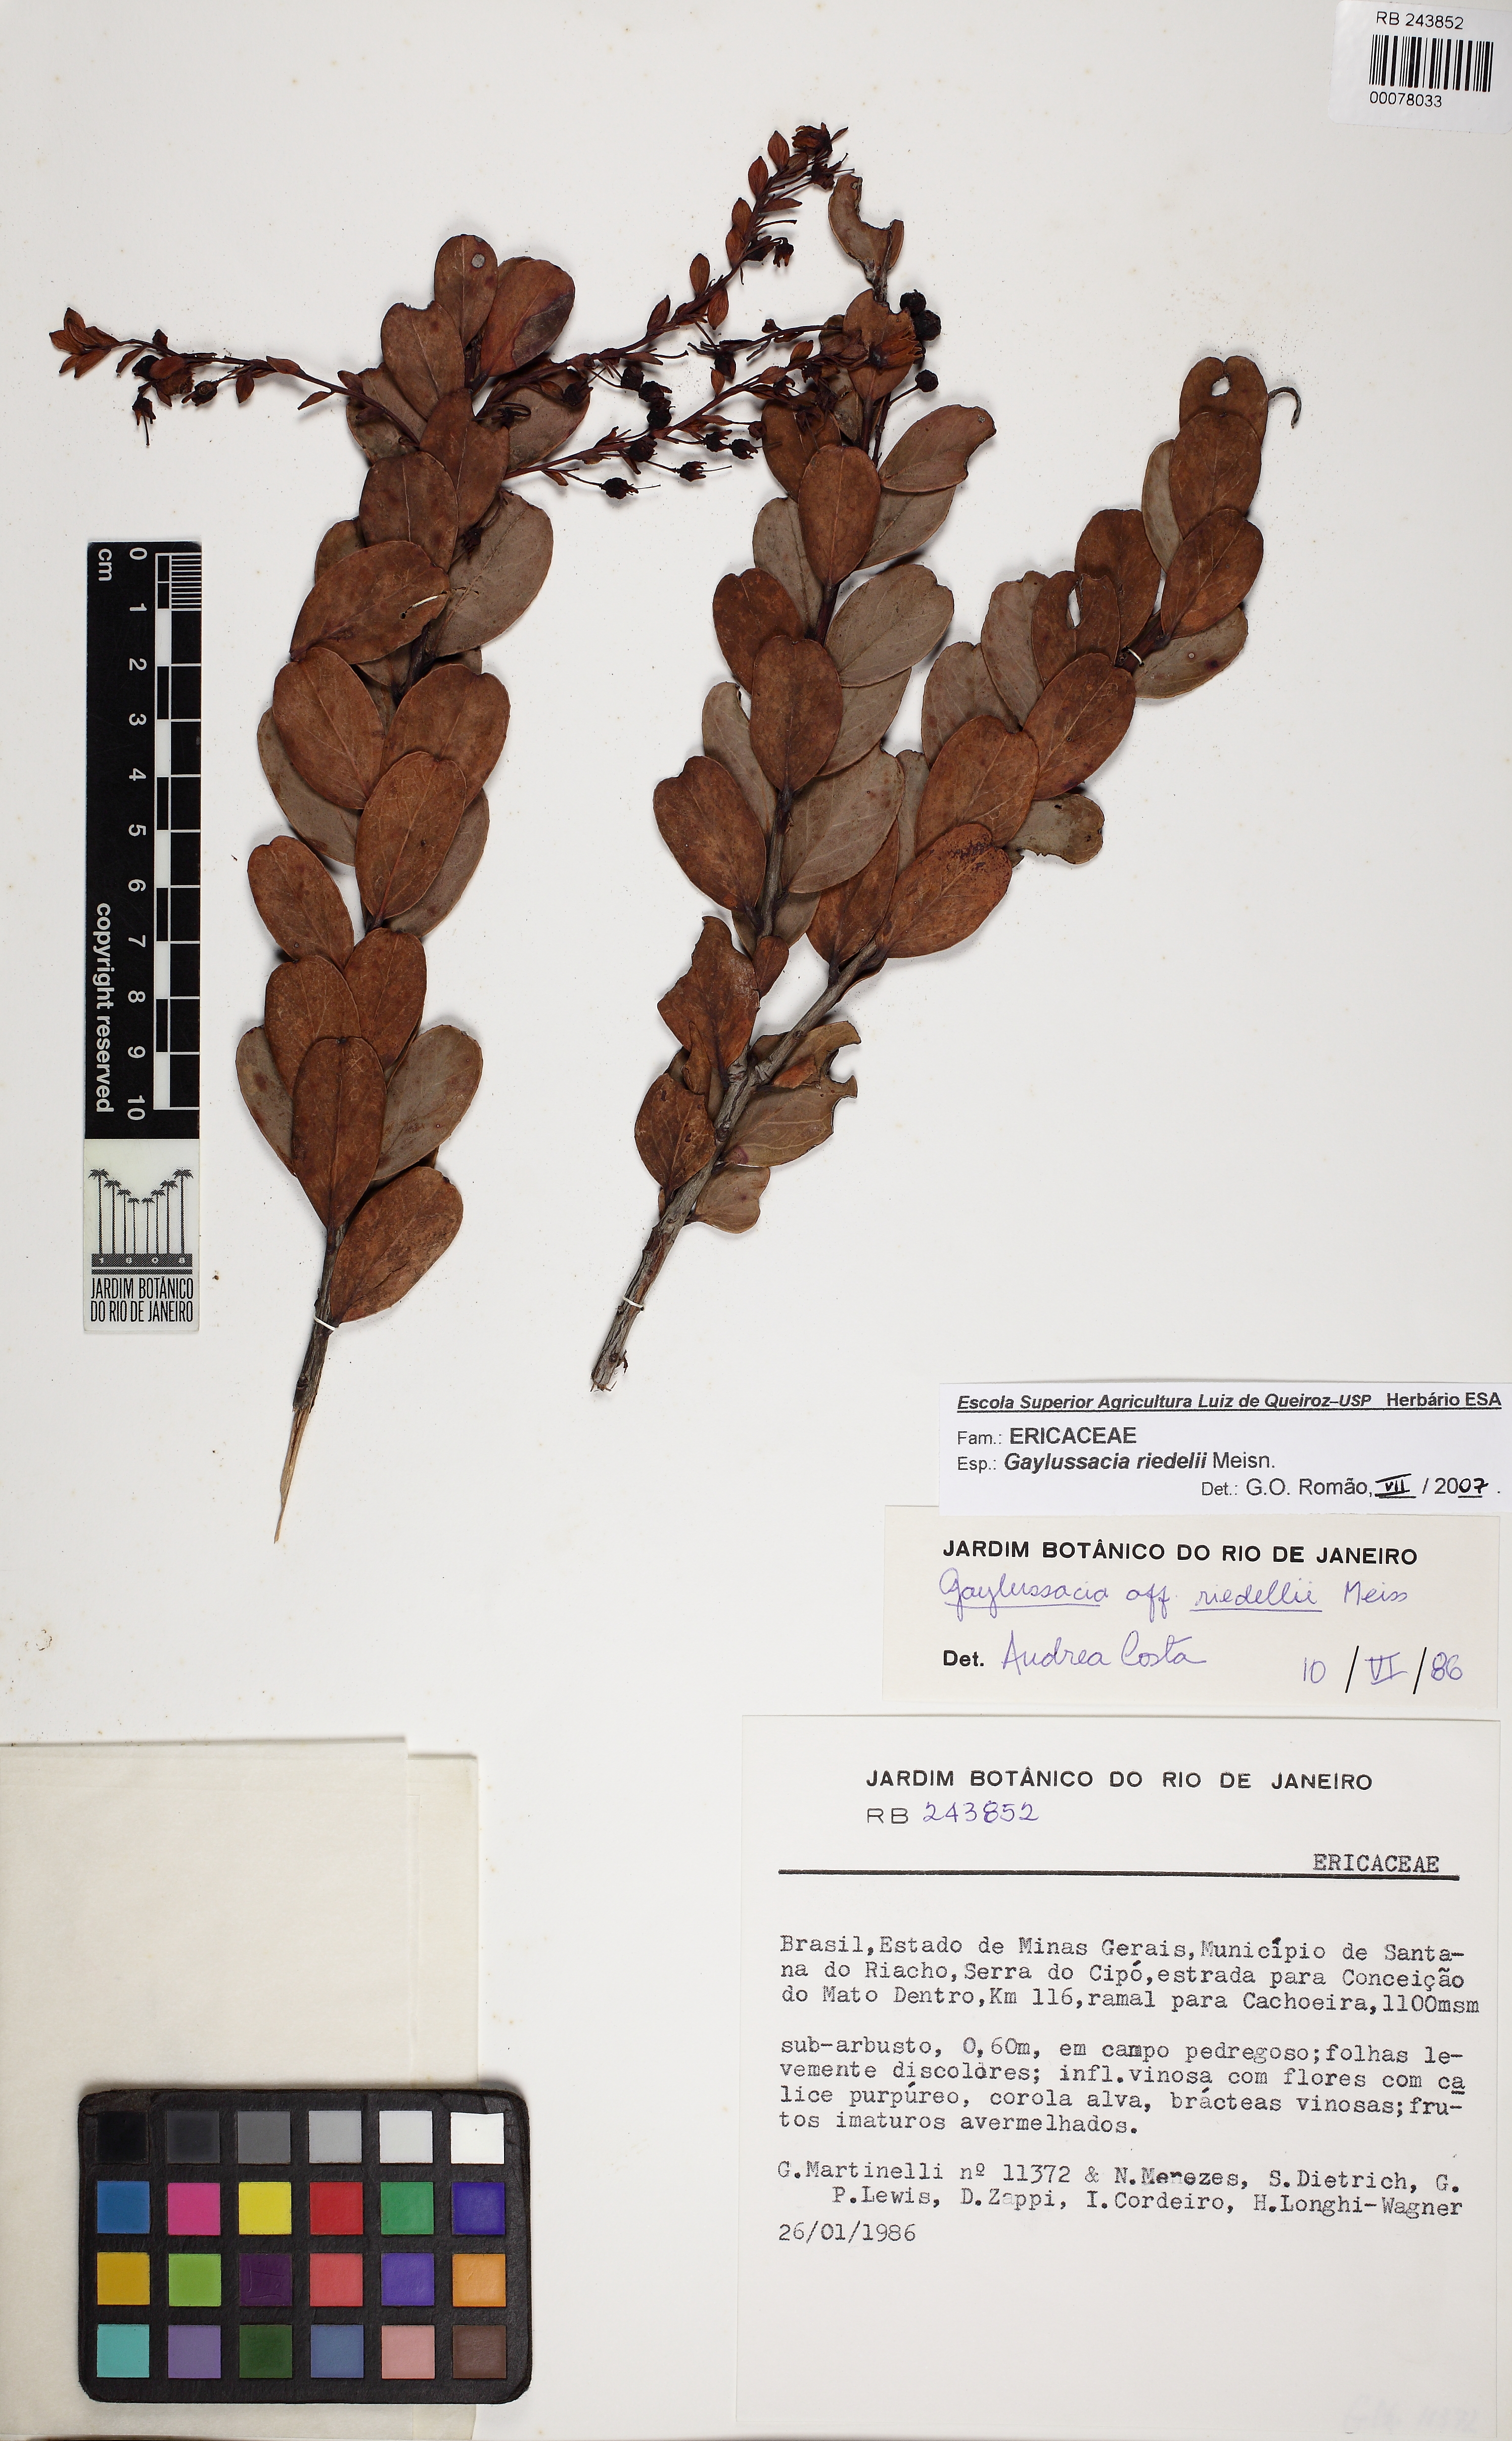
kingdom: Plantae
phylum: Tracheophyta
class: Magnoliopsida
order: Ericales
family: Ericaceae
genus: Gaylussacia
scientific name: Gaylussacia riedelii
